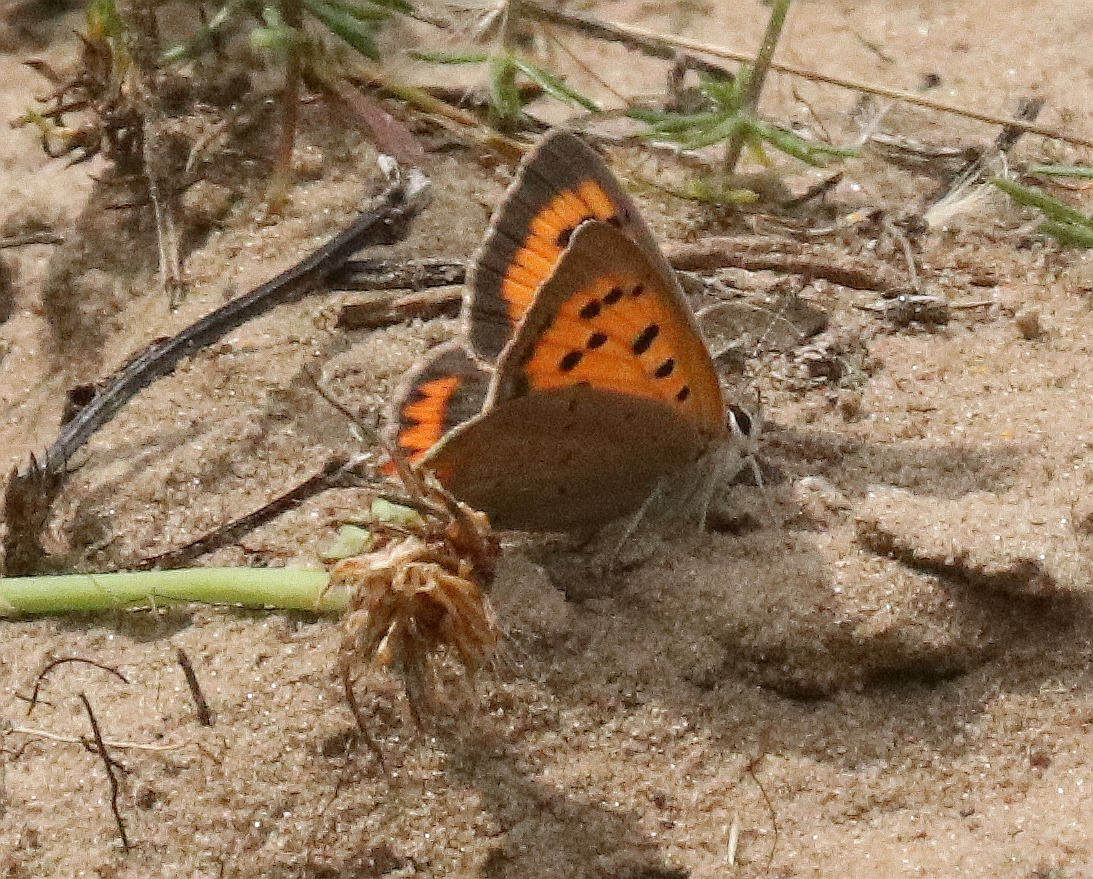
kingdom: Animalia
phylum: Arthropoda
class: Insecta
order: Lepidoptera
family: Lycaenidae
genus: Lycaena
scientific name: Lycaena phlaeas
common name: Lille ildfugl
